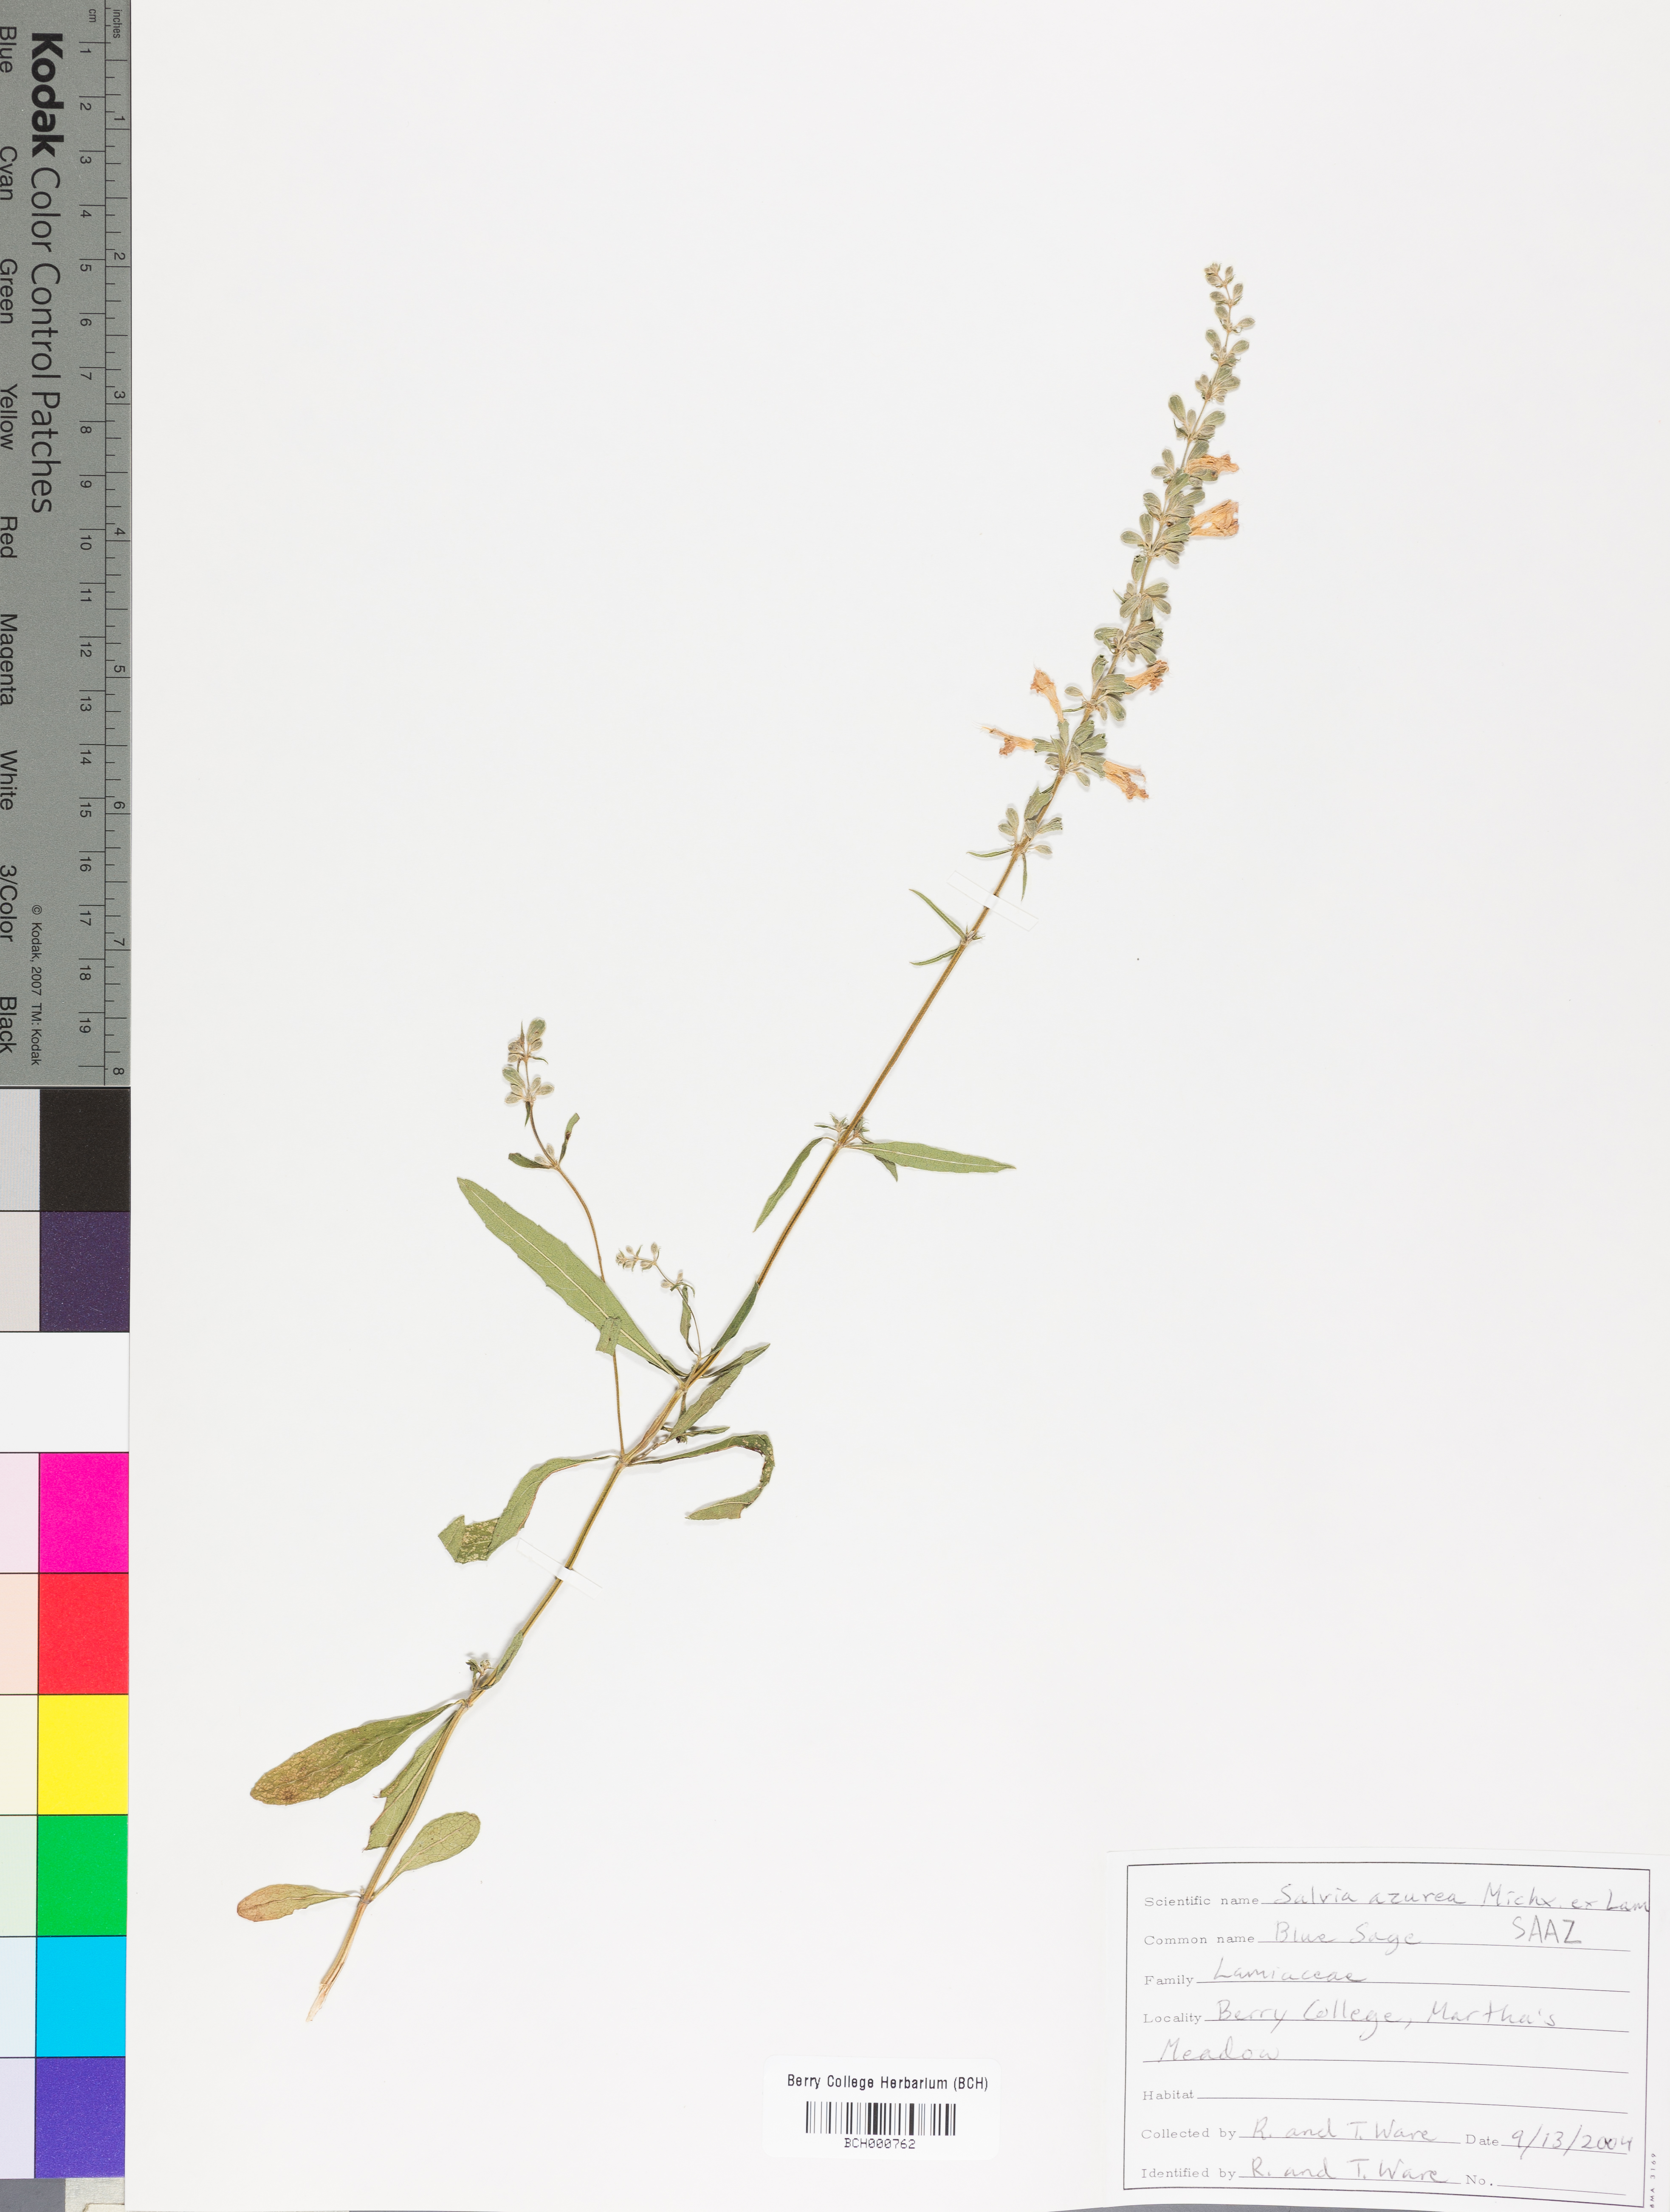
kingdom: Plantae
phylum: Tracheophyta
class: Magnoliopsida
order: Lamiales
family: Lamiaceae
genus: Salvia
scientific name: Salvia azurea
